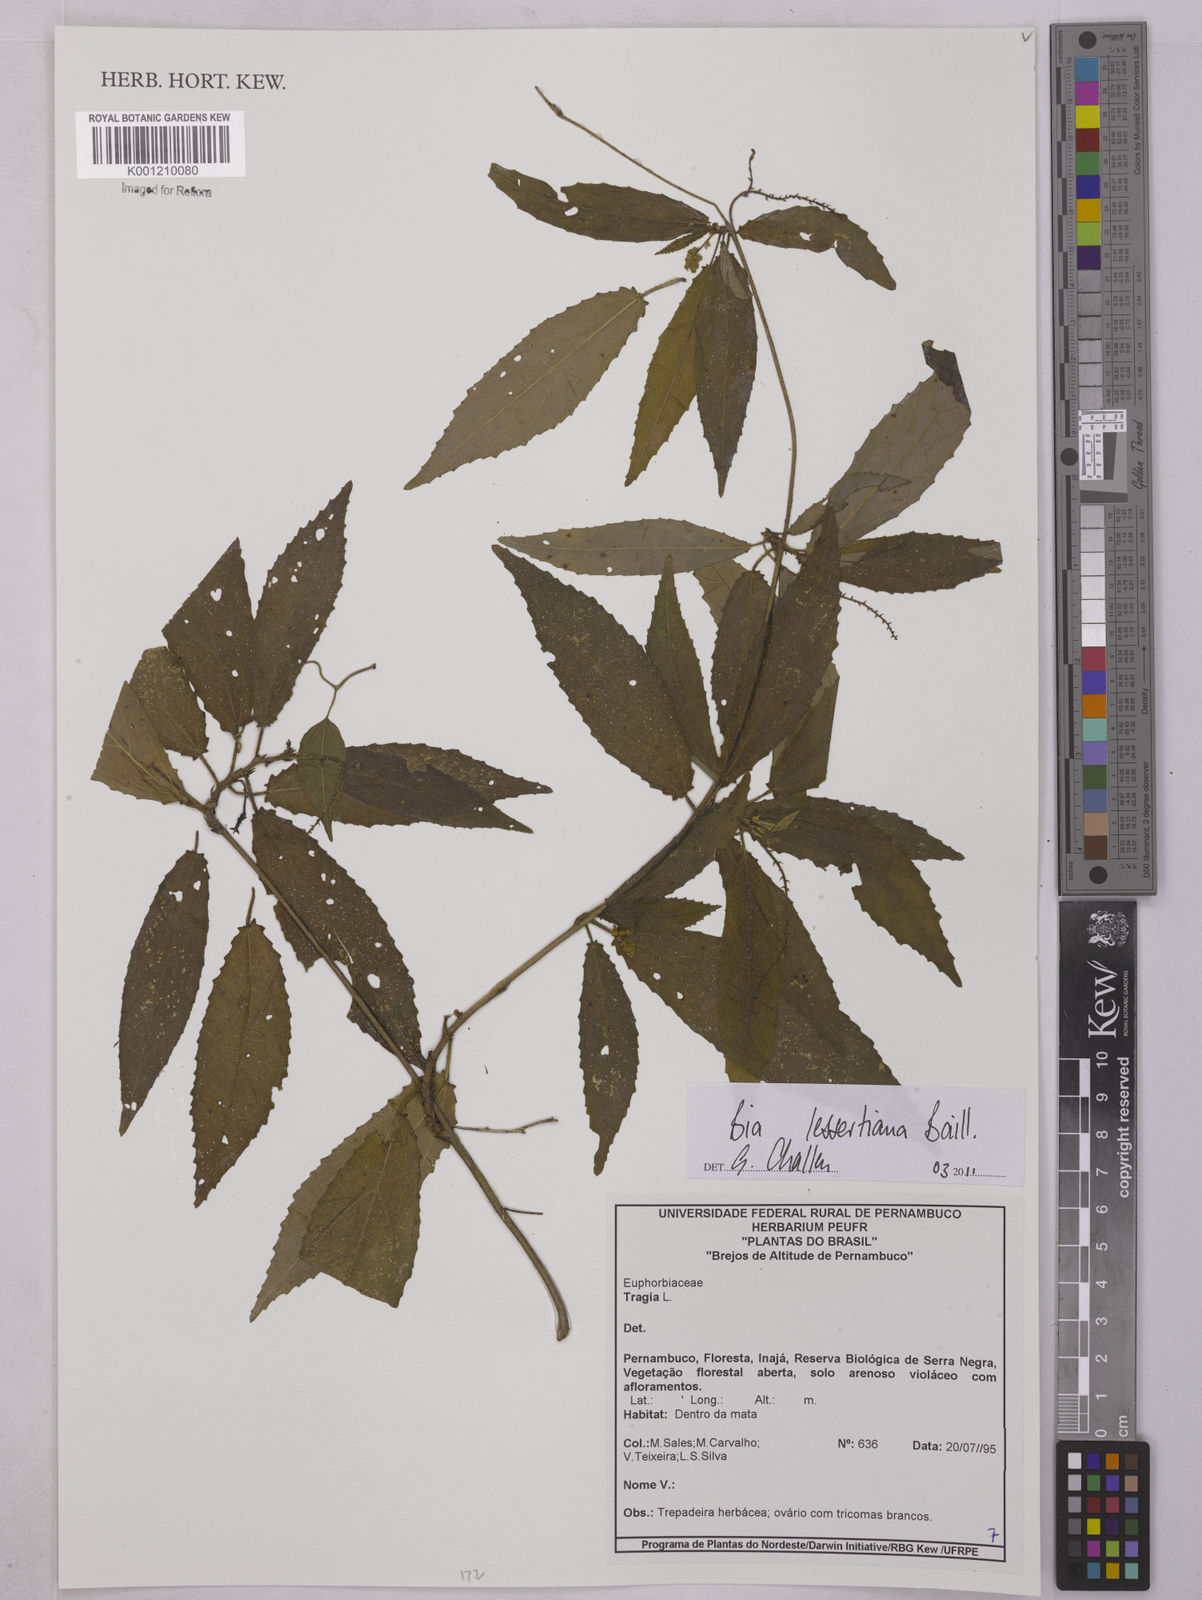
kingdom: Plantae
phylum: Tracheophyta
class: Magnoliopsida
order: Malpighiales
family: Euphorbiaceae
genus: Bia
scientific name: Bia lessertiana
